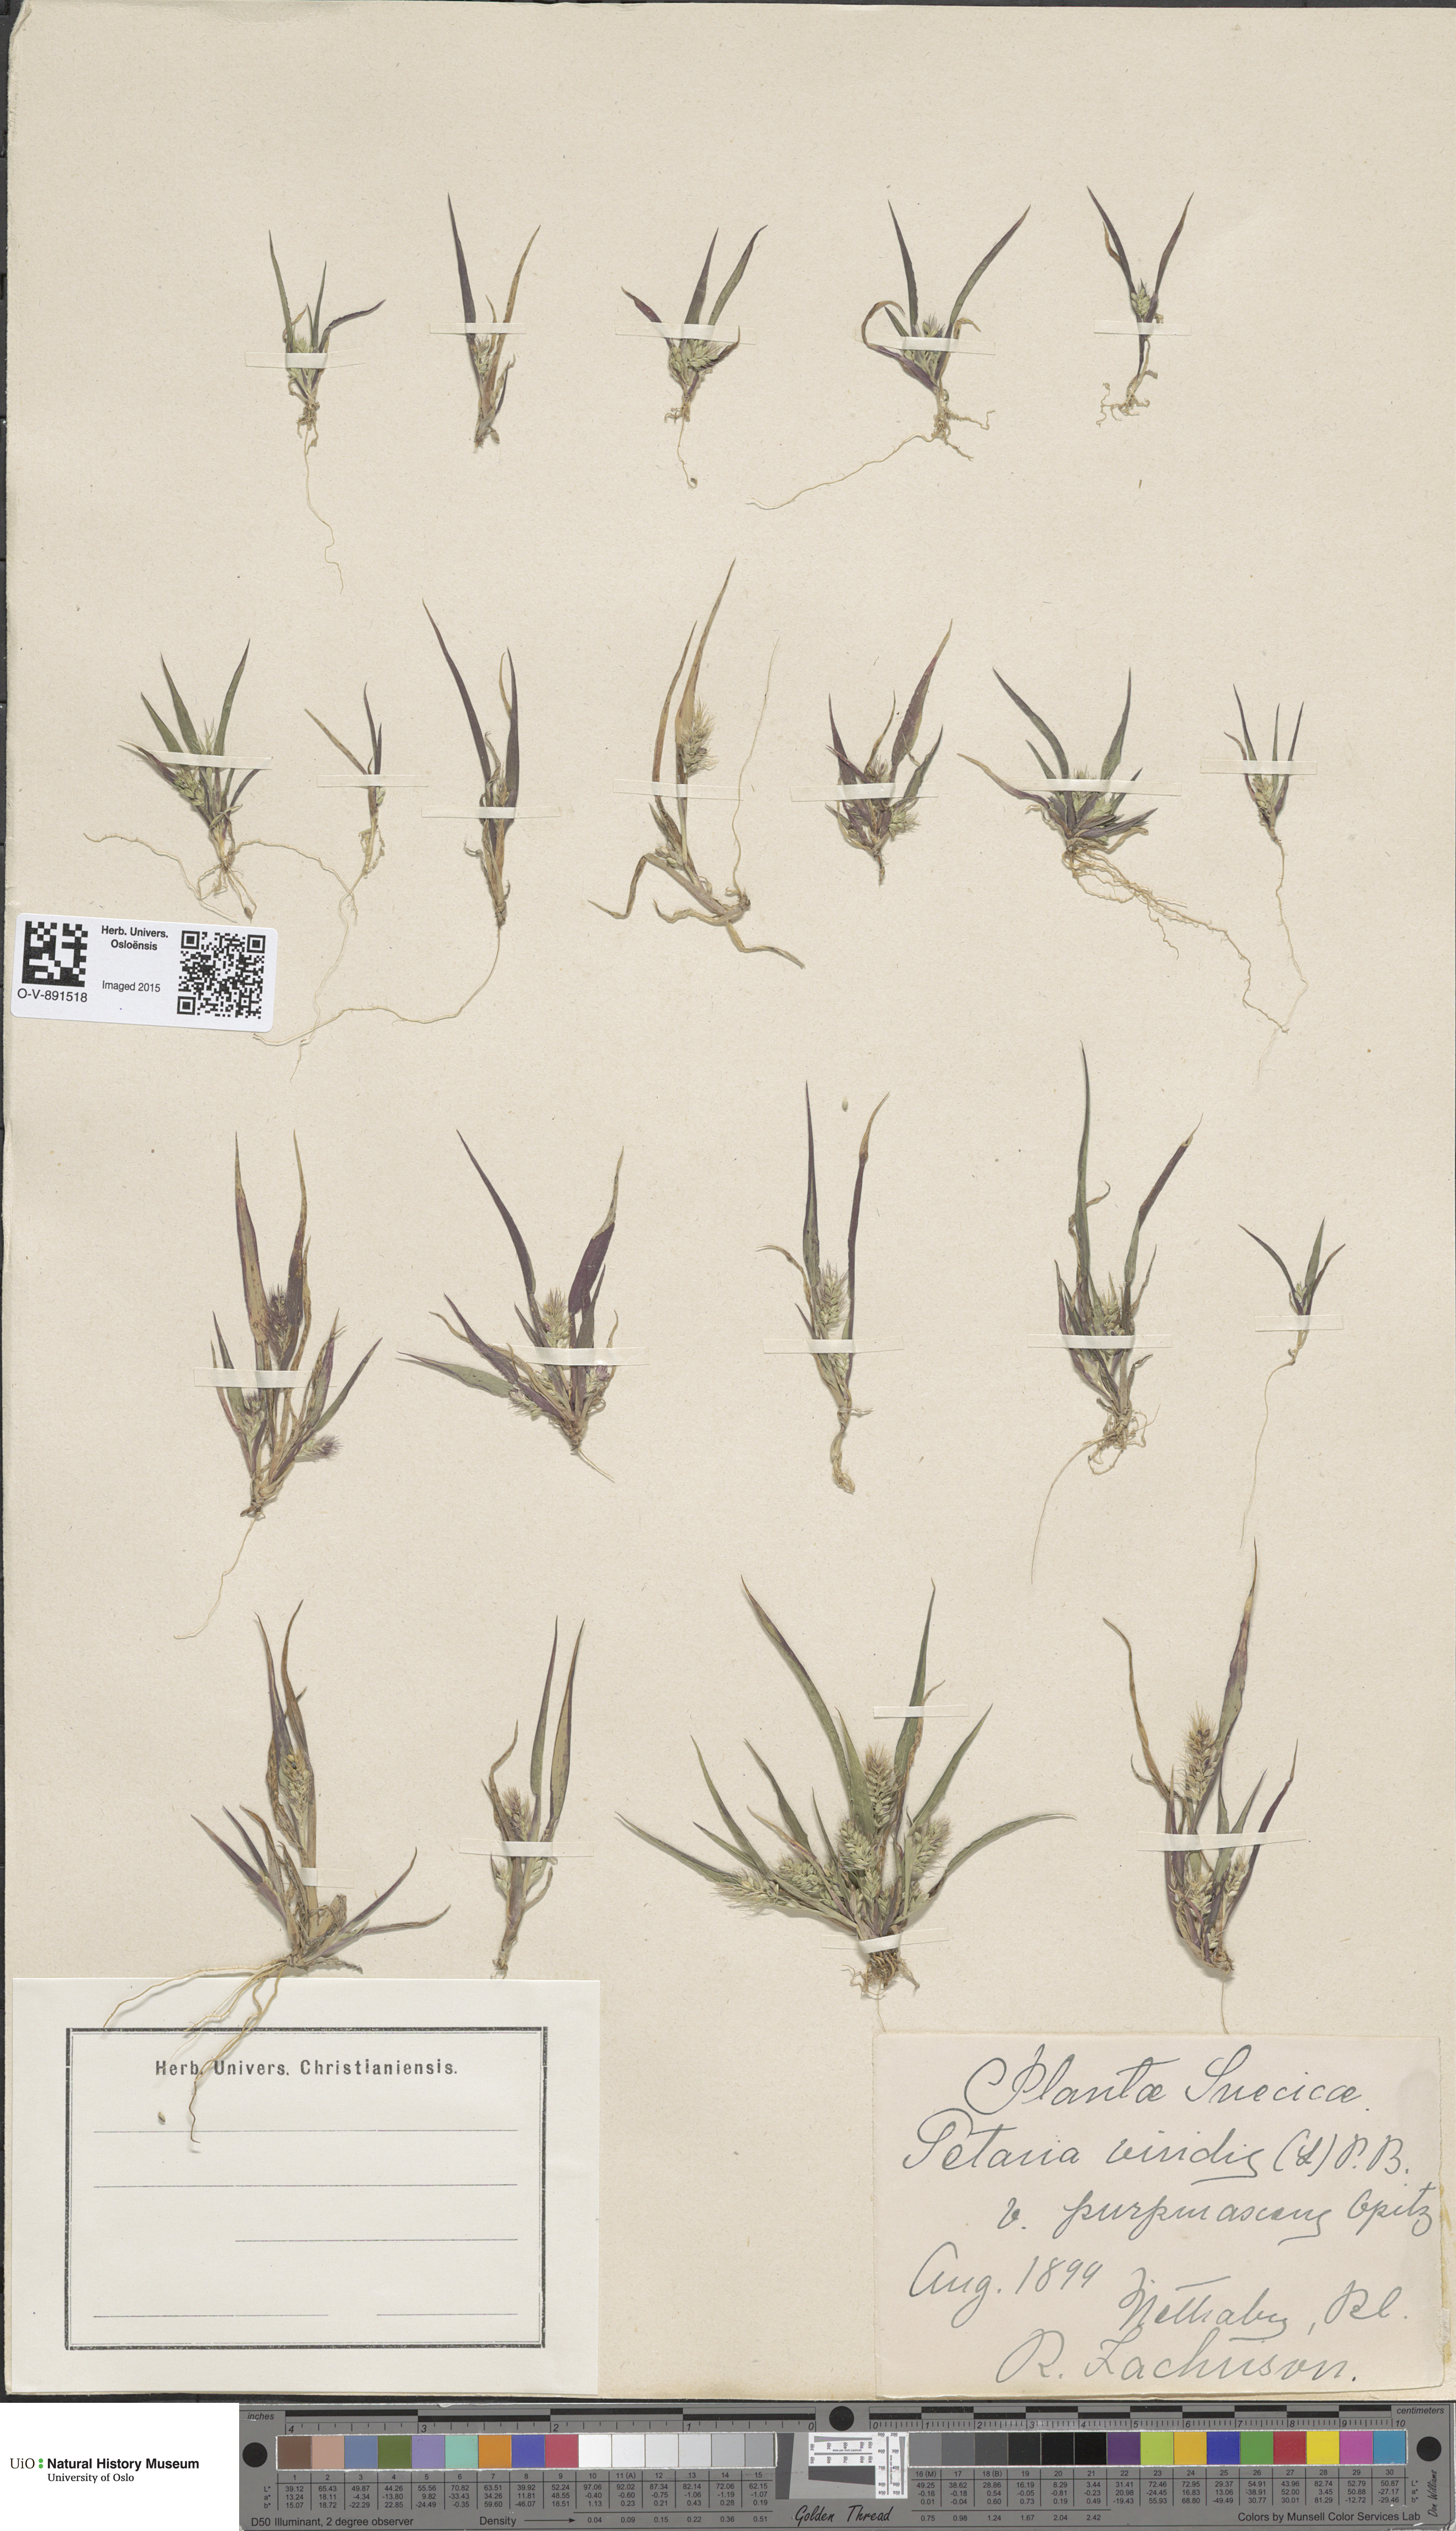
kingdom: Plantae
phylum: Tracheophyta
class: Liliopsida
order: Poales
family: Poaceae
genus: Setaria
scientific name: Setaria viridis
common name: Green bristlegrass
